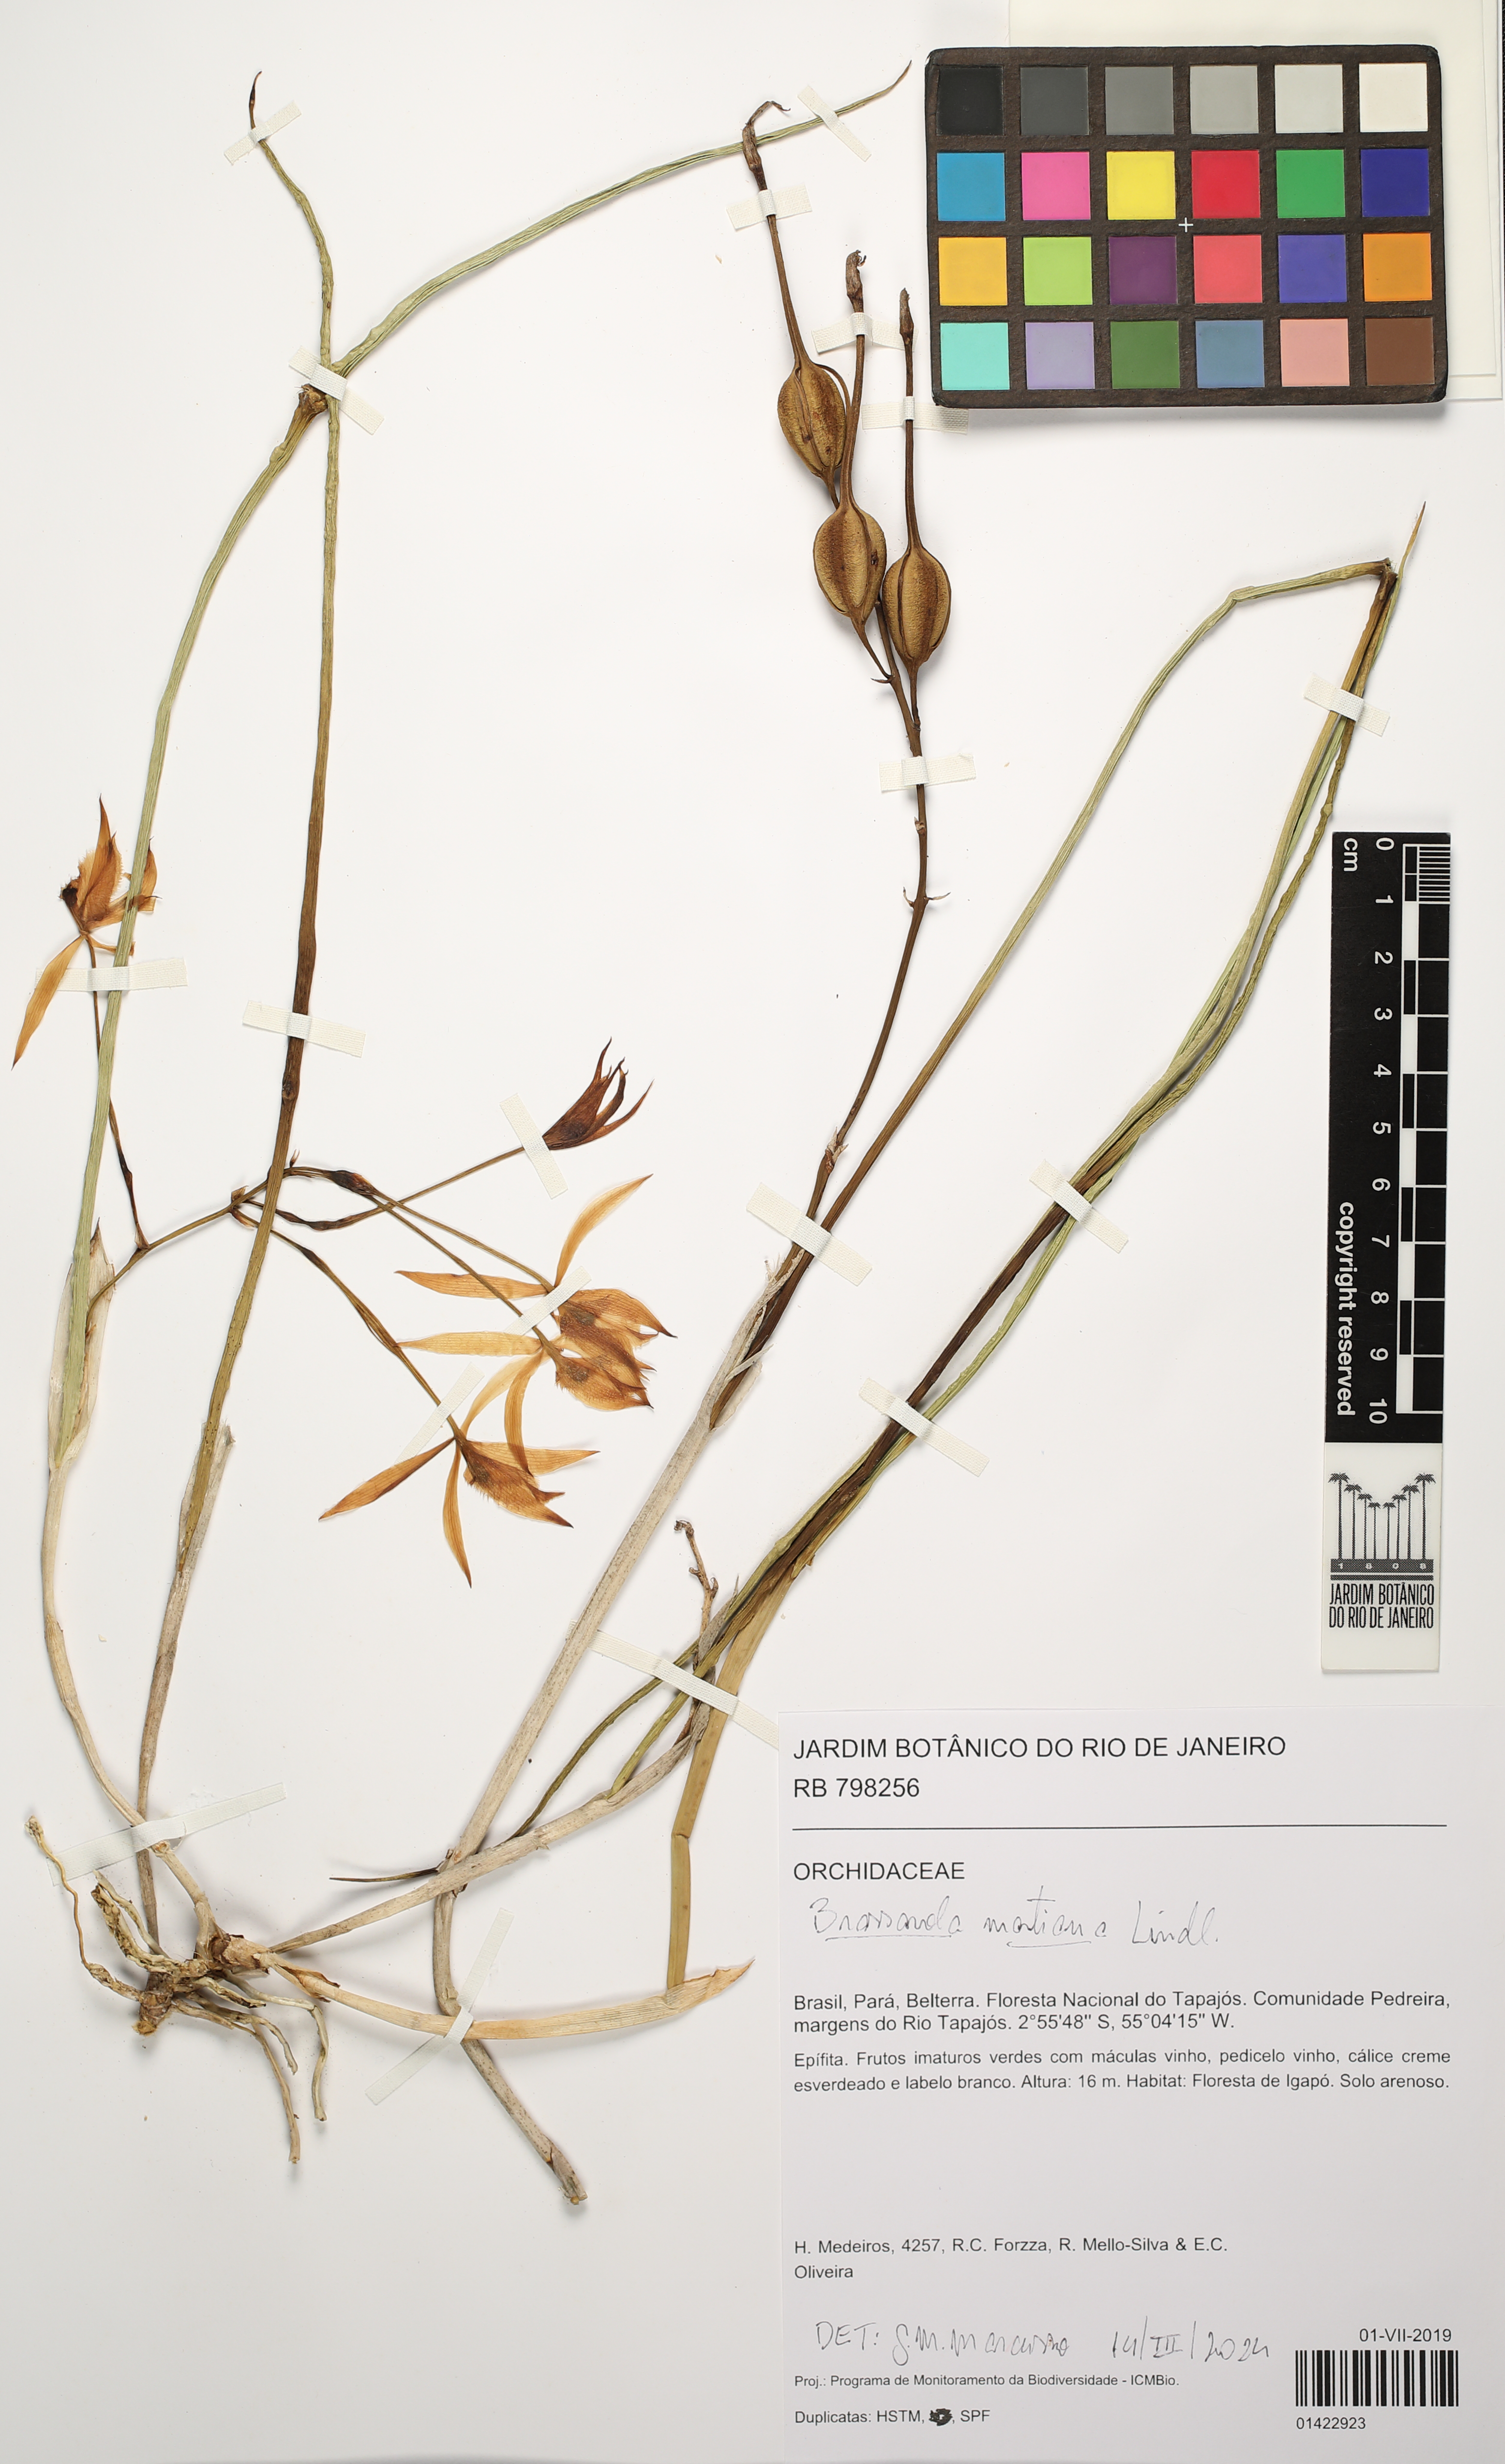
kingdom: Plantae
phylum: Tracheophyta
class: Liliopsida
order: Asparagales
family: Orchidaceae
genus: Brassavola
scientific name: Brassavola martiana
